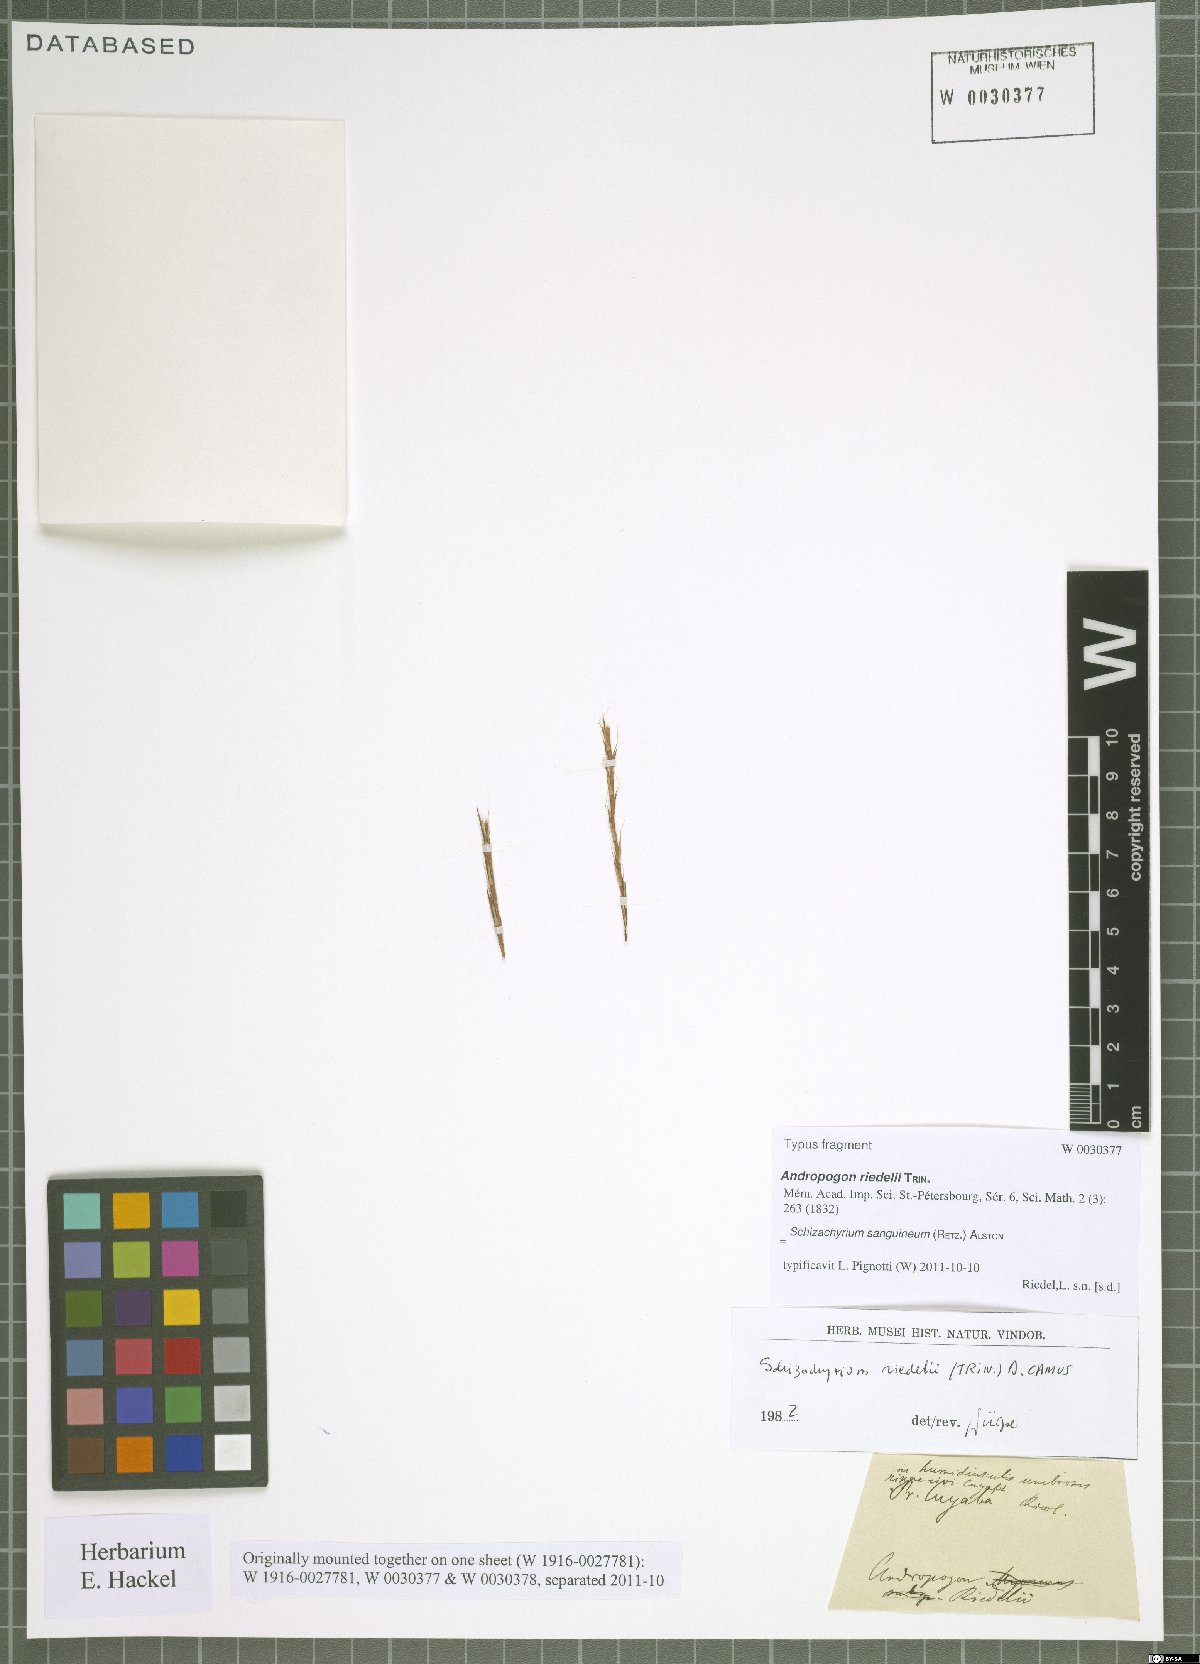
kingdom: Plantae
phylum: Tracheophyta
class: Liliopsida
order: Poales
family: Poaceae
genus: Schizachyrium
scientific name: Schizachyrium sanguineum
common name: Crimson bluestem
